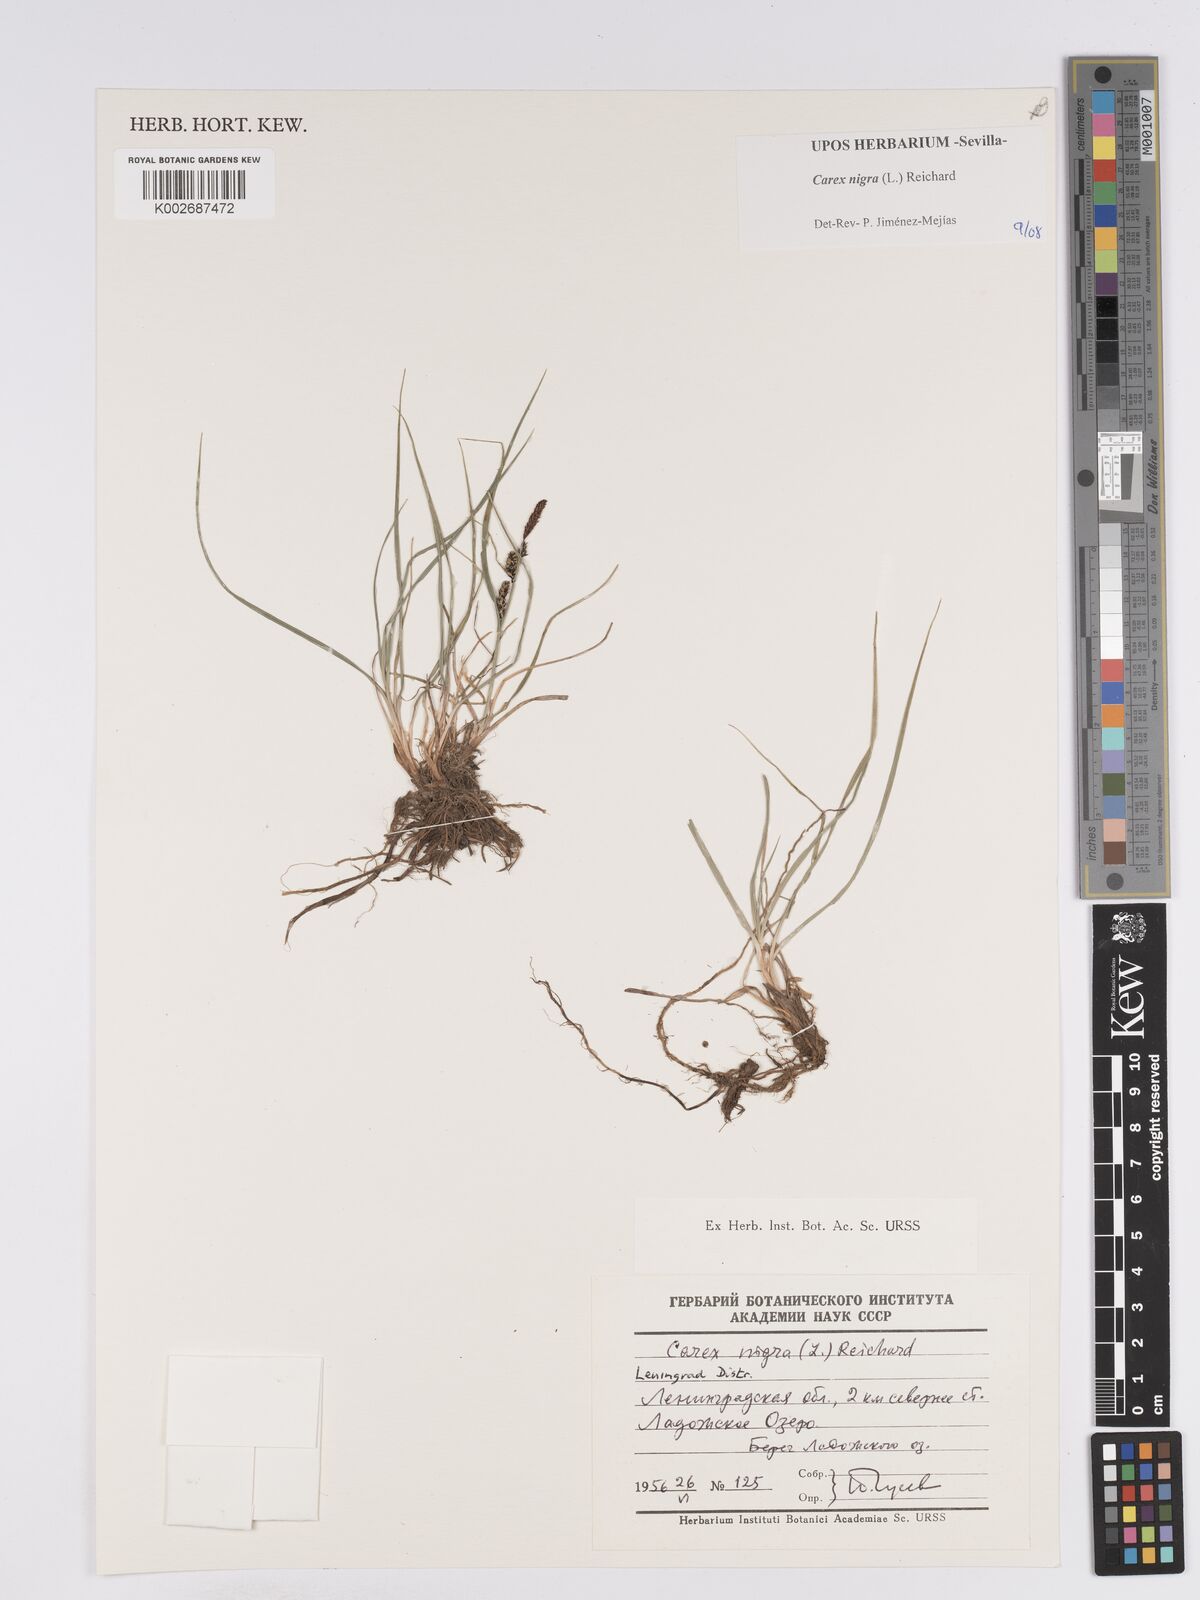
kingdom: Plantae
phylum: Tracheophyta
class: Liliopsida
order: Poales
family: Cyperaceae
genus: Carex
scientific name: Carex nigra
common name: Common sedge
